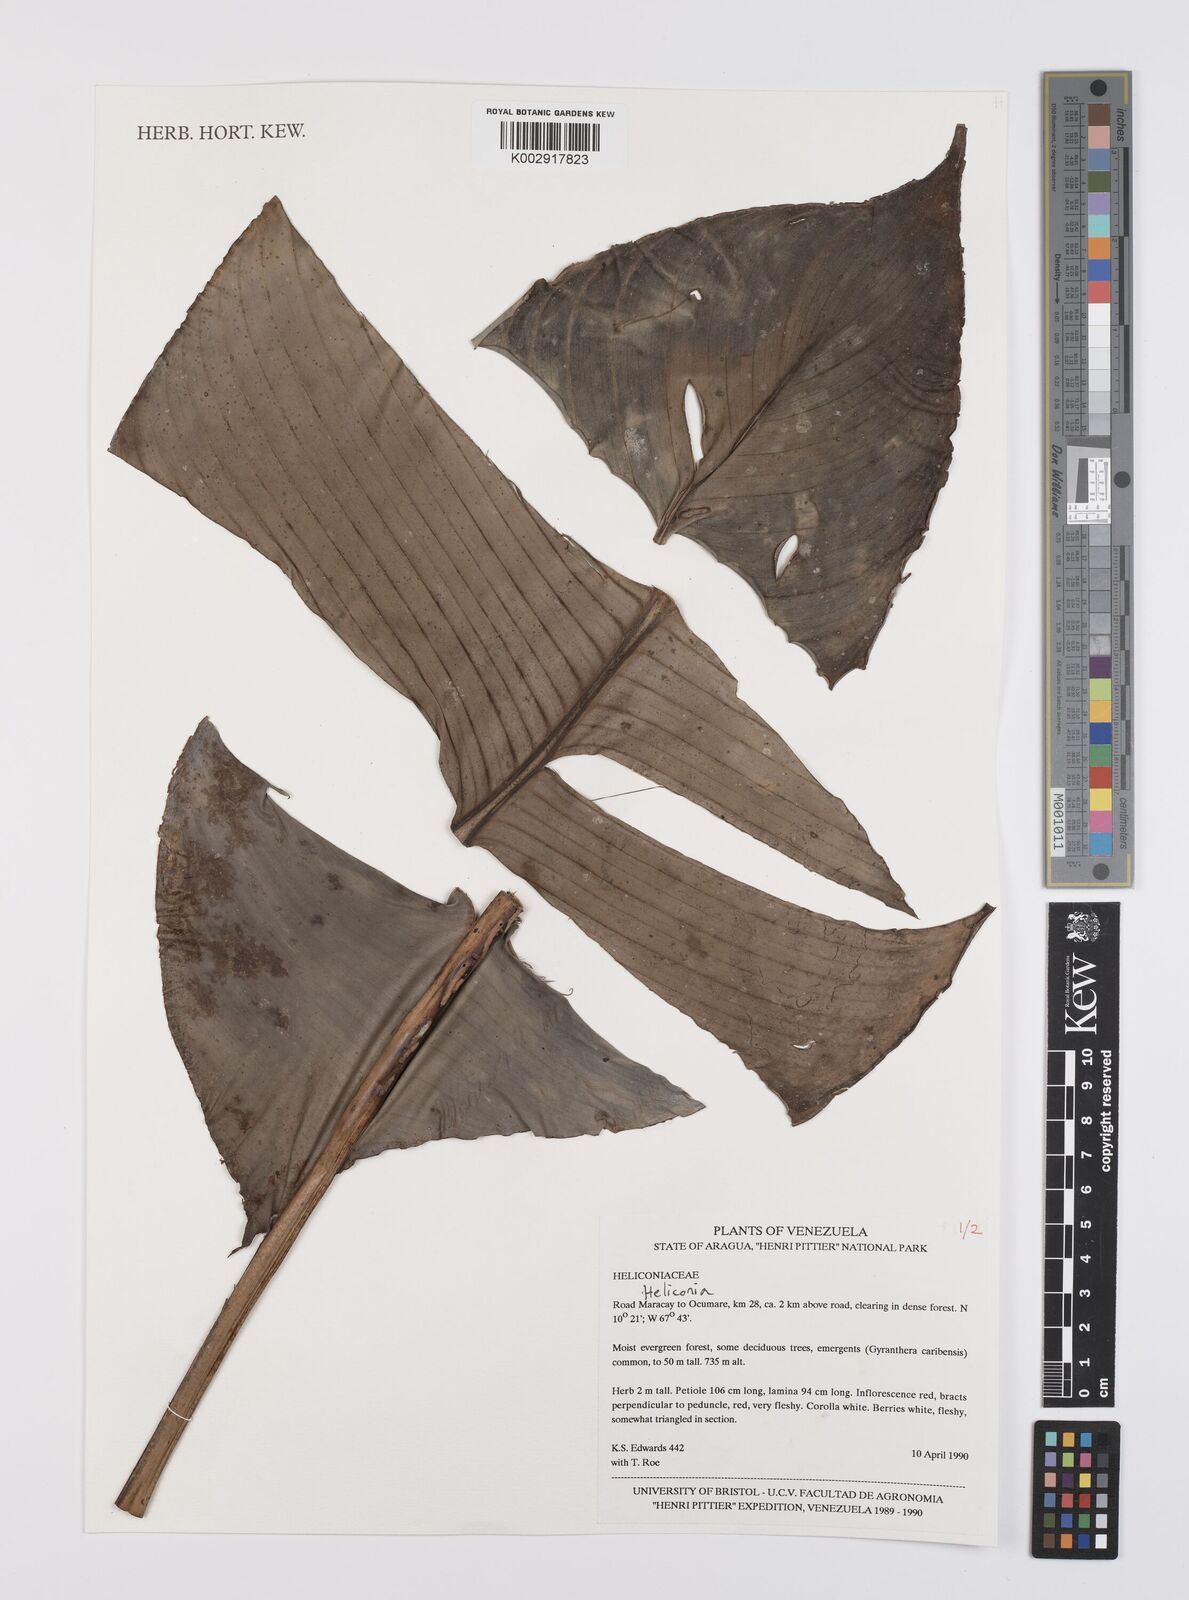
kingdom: Plantae
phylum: Tracheophyta
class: Liliopsida
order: Zingiberales
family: Heliconiaceae
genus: Heliconia
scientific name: Heliconia
